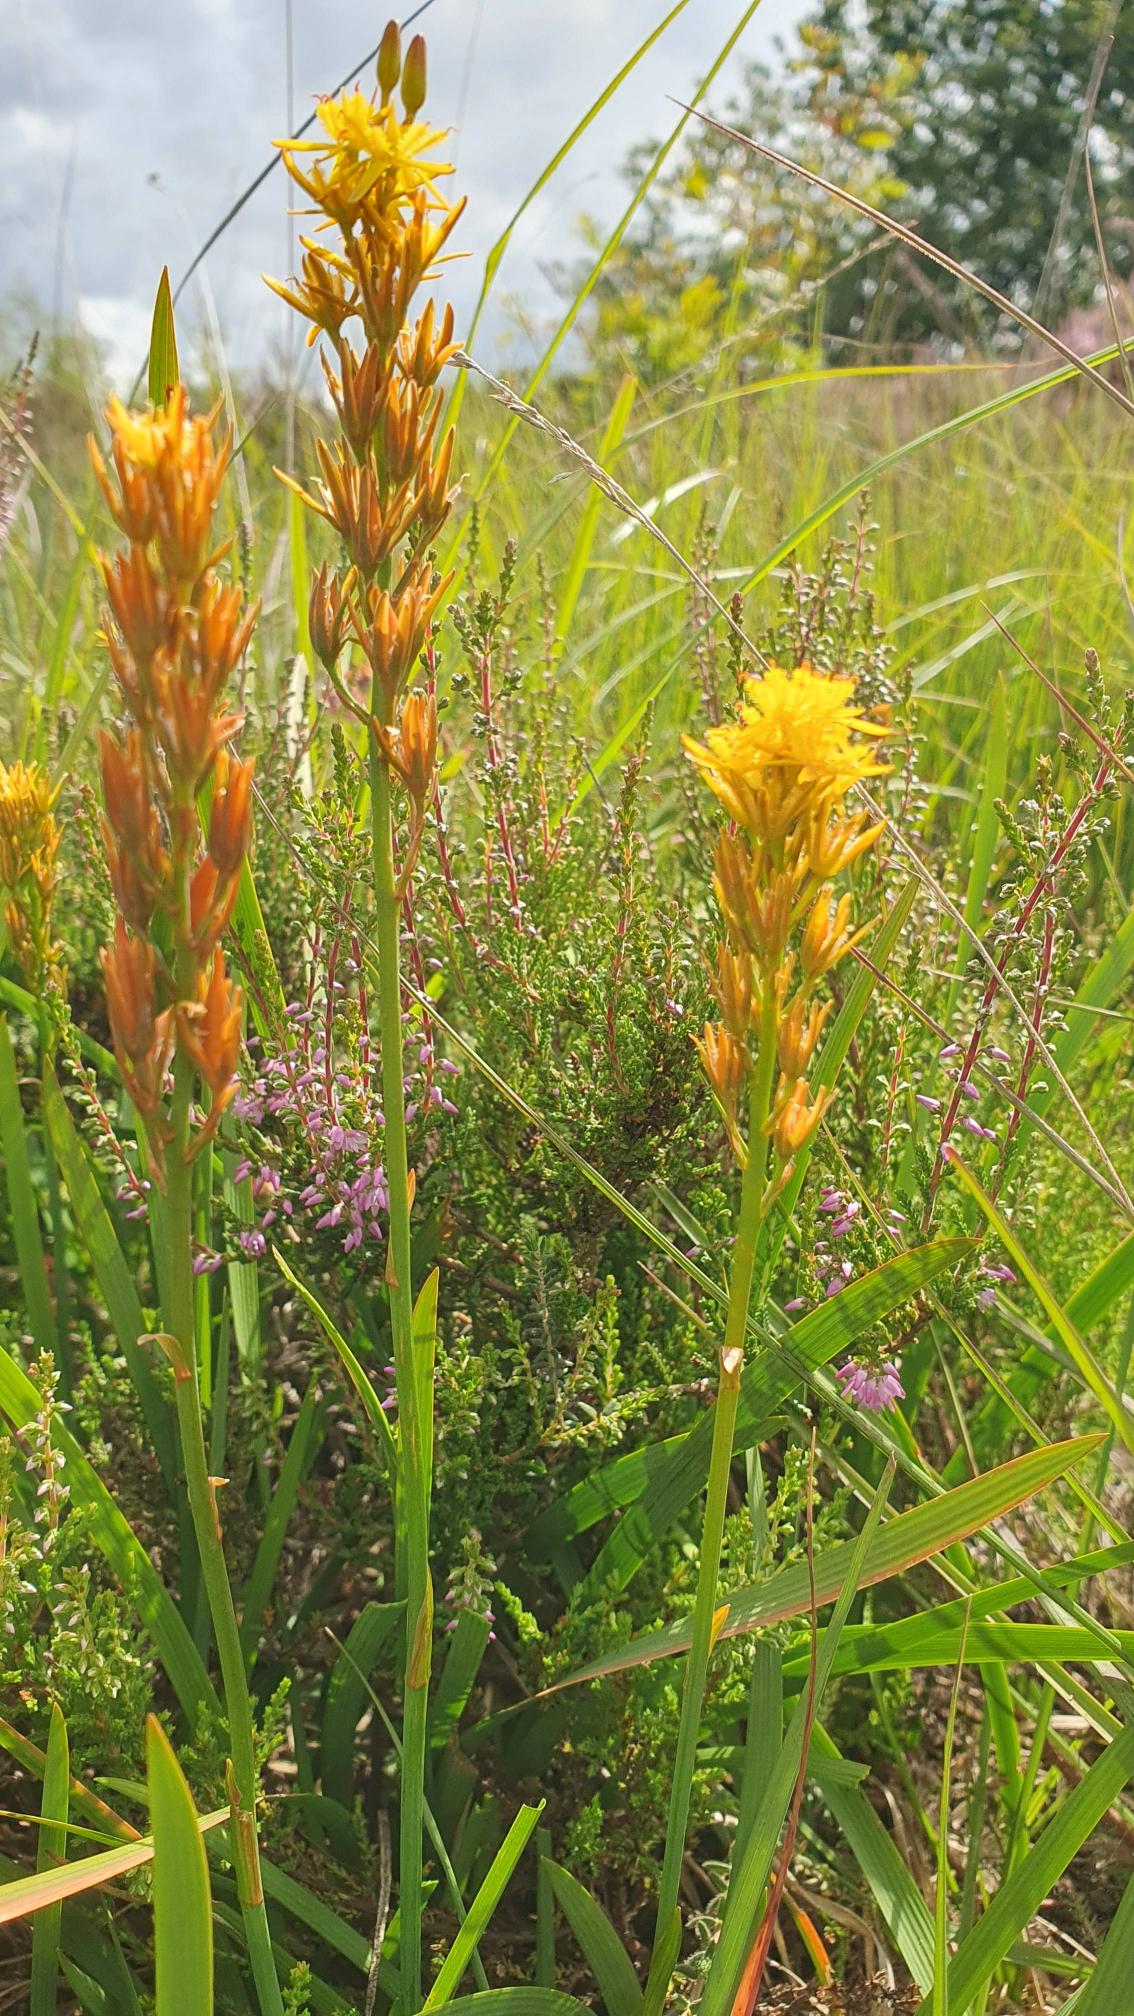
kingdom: Plantae
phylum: Tracheophyta
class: Liliopsida
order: Dioscoreales
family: Nartheciaceae
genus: Narthecium
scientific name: Narthecium ossifragum
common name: Benbræk
